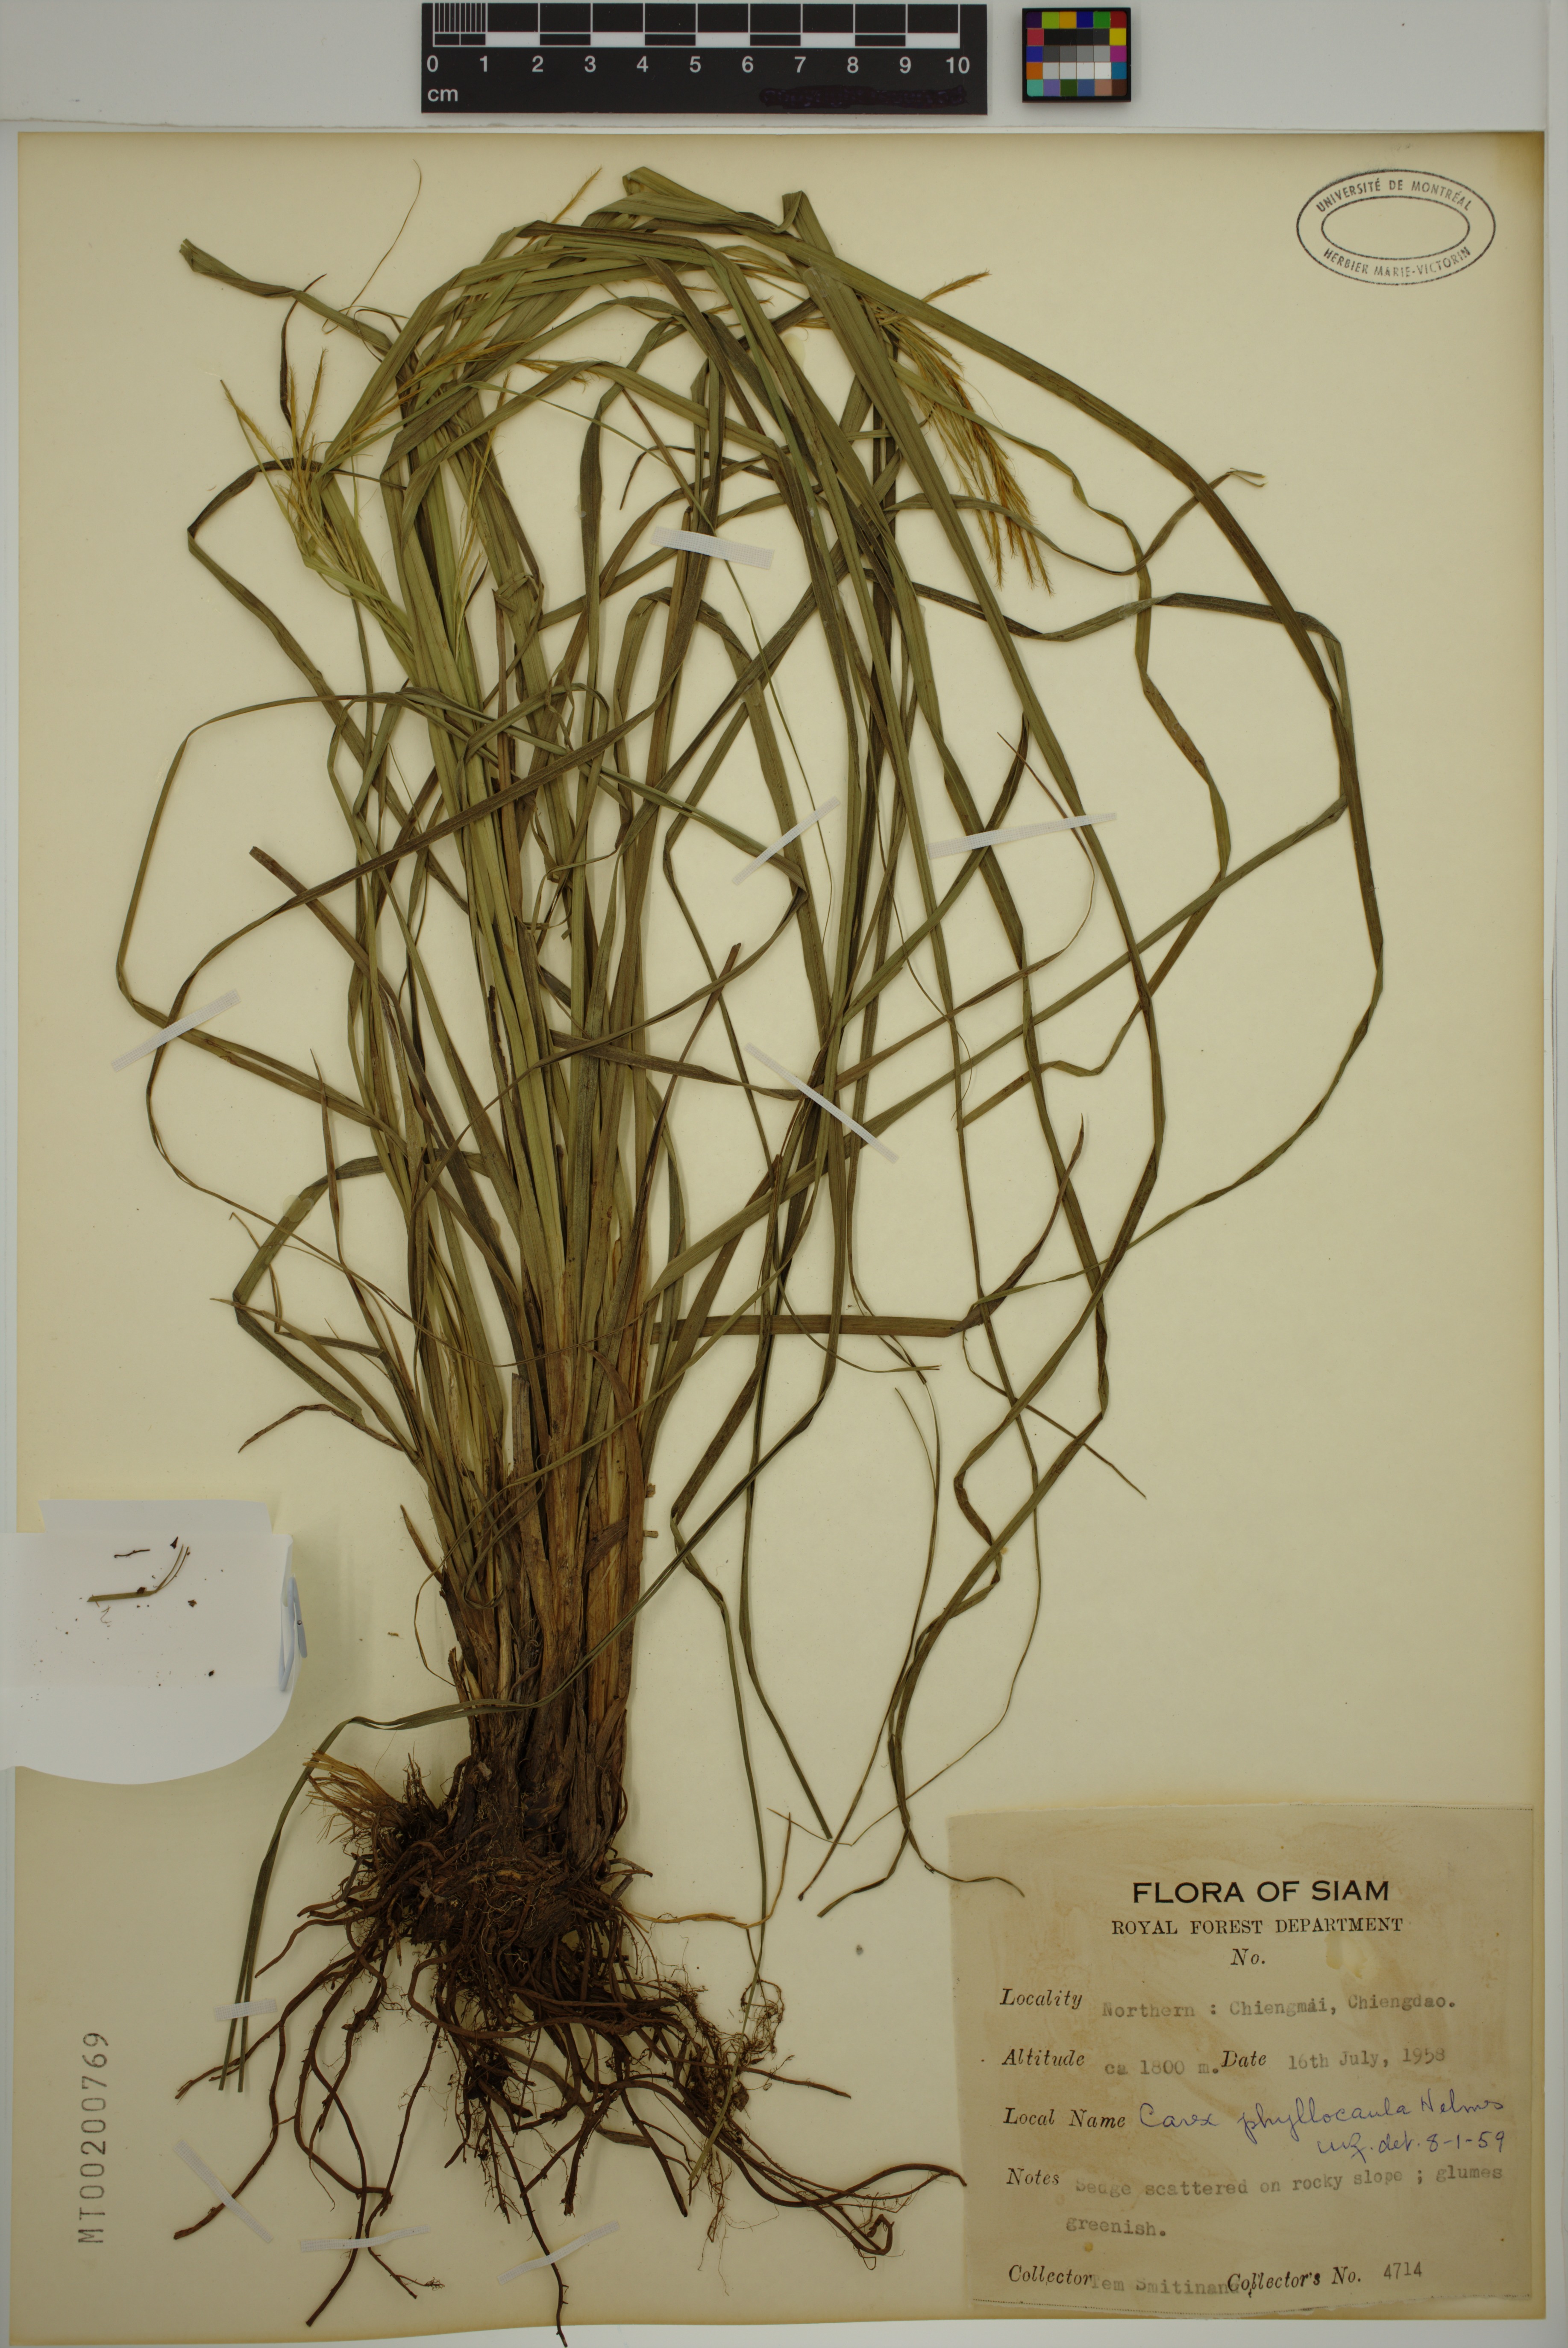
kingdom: Plantae
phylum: Tracheophyta
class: Liliopsida
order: Poales
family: Cyperaceae
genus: Carex
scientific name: Carex phyllocaula
